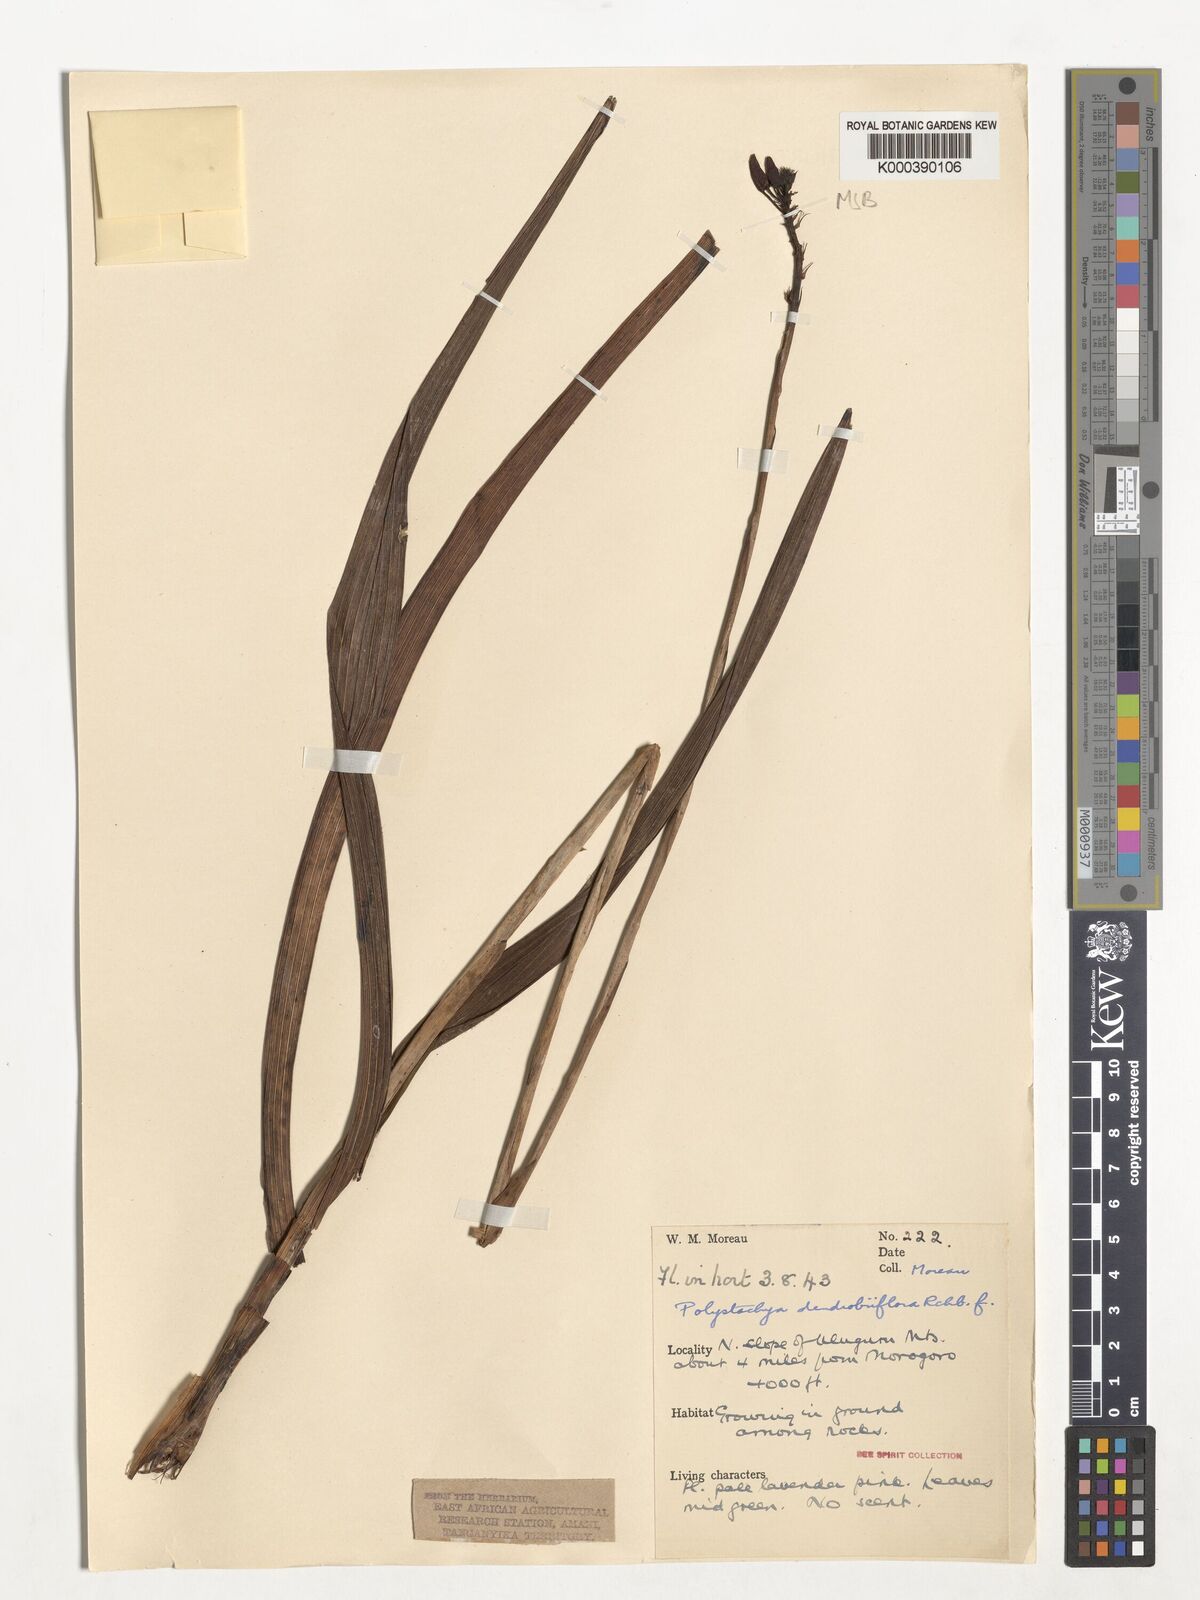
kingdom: Plantae
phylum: Tracheophyta
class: Liliopsida
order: Asparagales
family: Orchidaceae
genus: Polystachya
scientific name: Polystachya longiscapa
